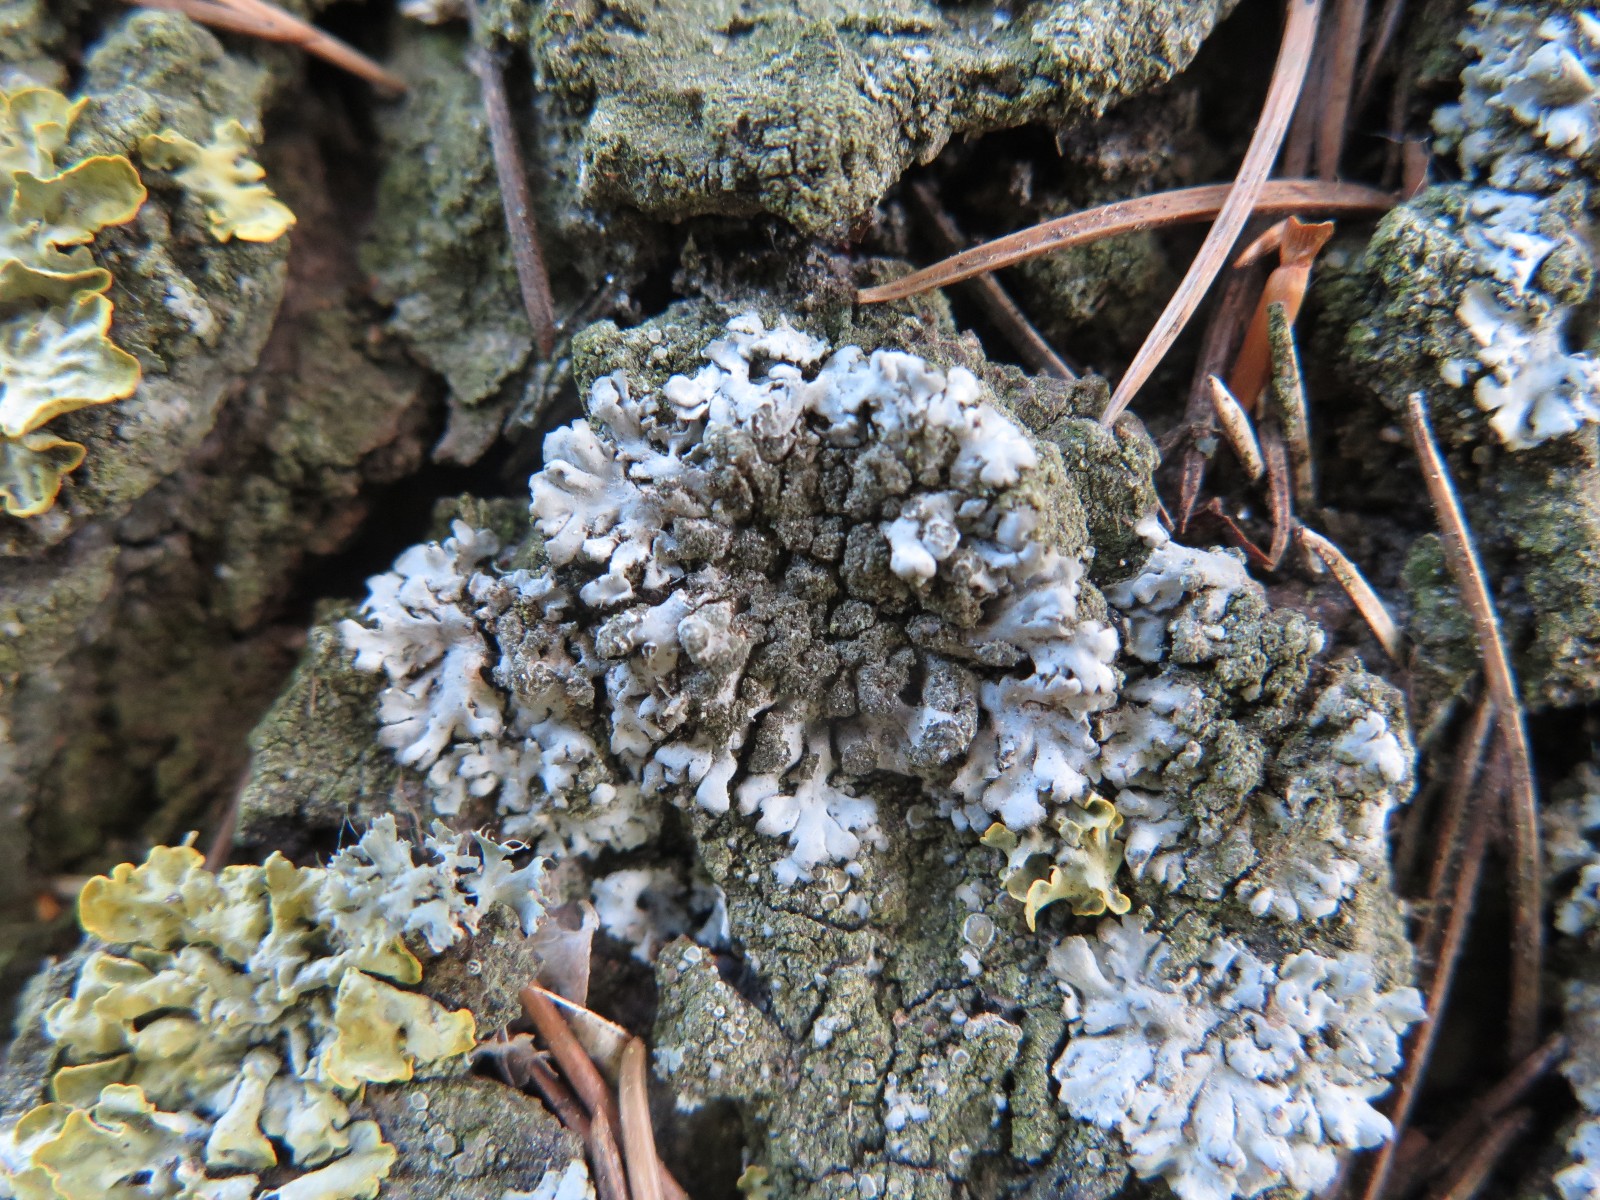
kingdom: Fungi
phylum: Ascomycota
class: Lecanoromycetes
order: Caliciales
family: Physciaceae
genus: Phaeophyscia
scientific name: Phaeophyscia orbicularis
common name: grågrøn rosetlav
